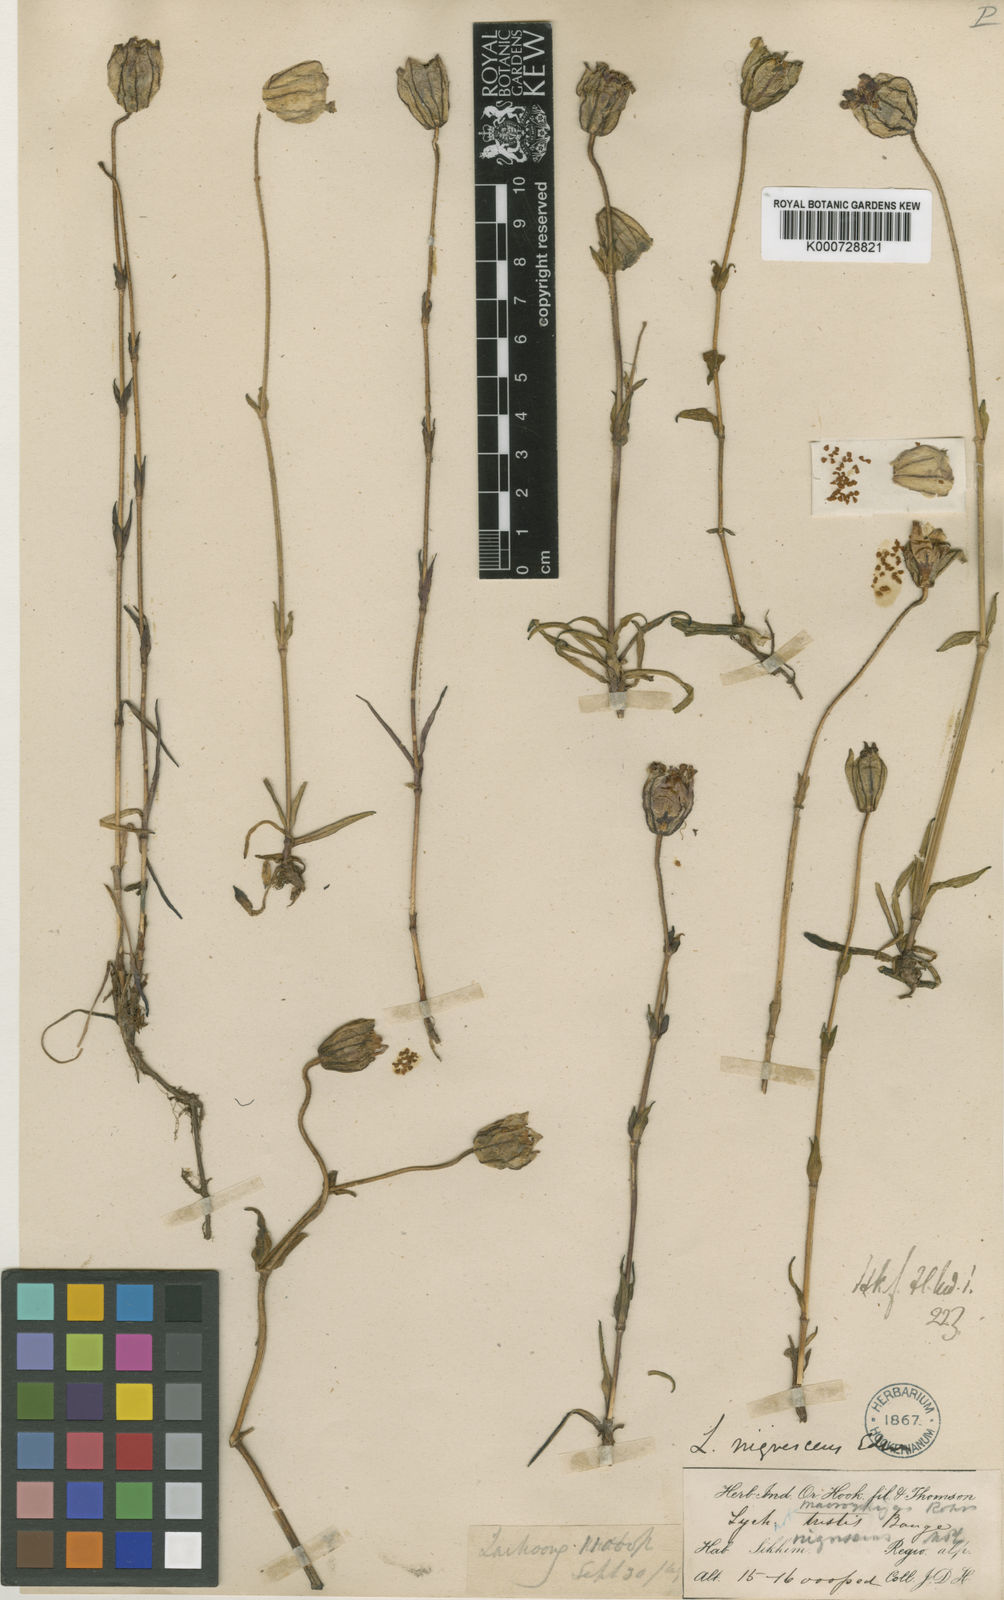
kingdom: Plantae
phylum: Tracheophyta
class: Magnoliopsida
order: Caryophyllales
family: Caryophyllaceae
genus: Silene
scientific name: Silene nigrescens
